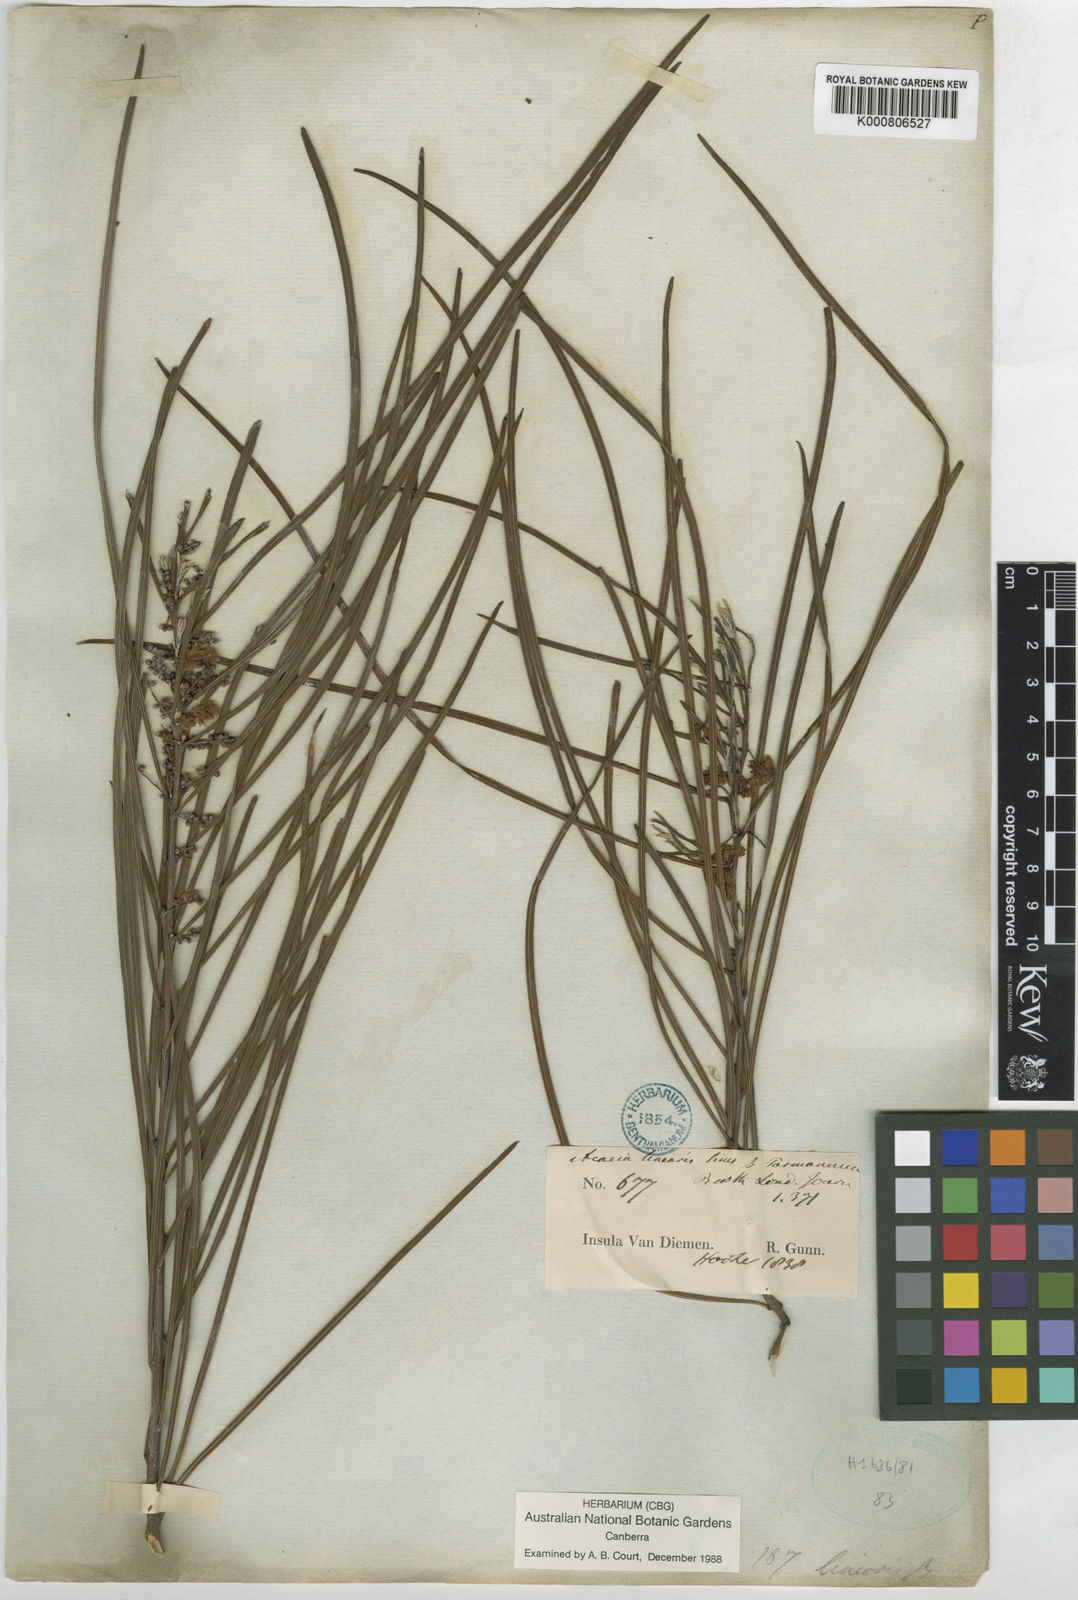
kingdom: Plantae
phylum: Tracheophyta
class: Magnoliopsida
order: Fabales
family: Fabaceae
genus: Acacia
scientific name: Acacia longissima
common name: Longleaf wattle
